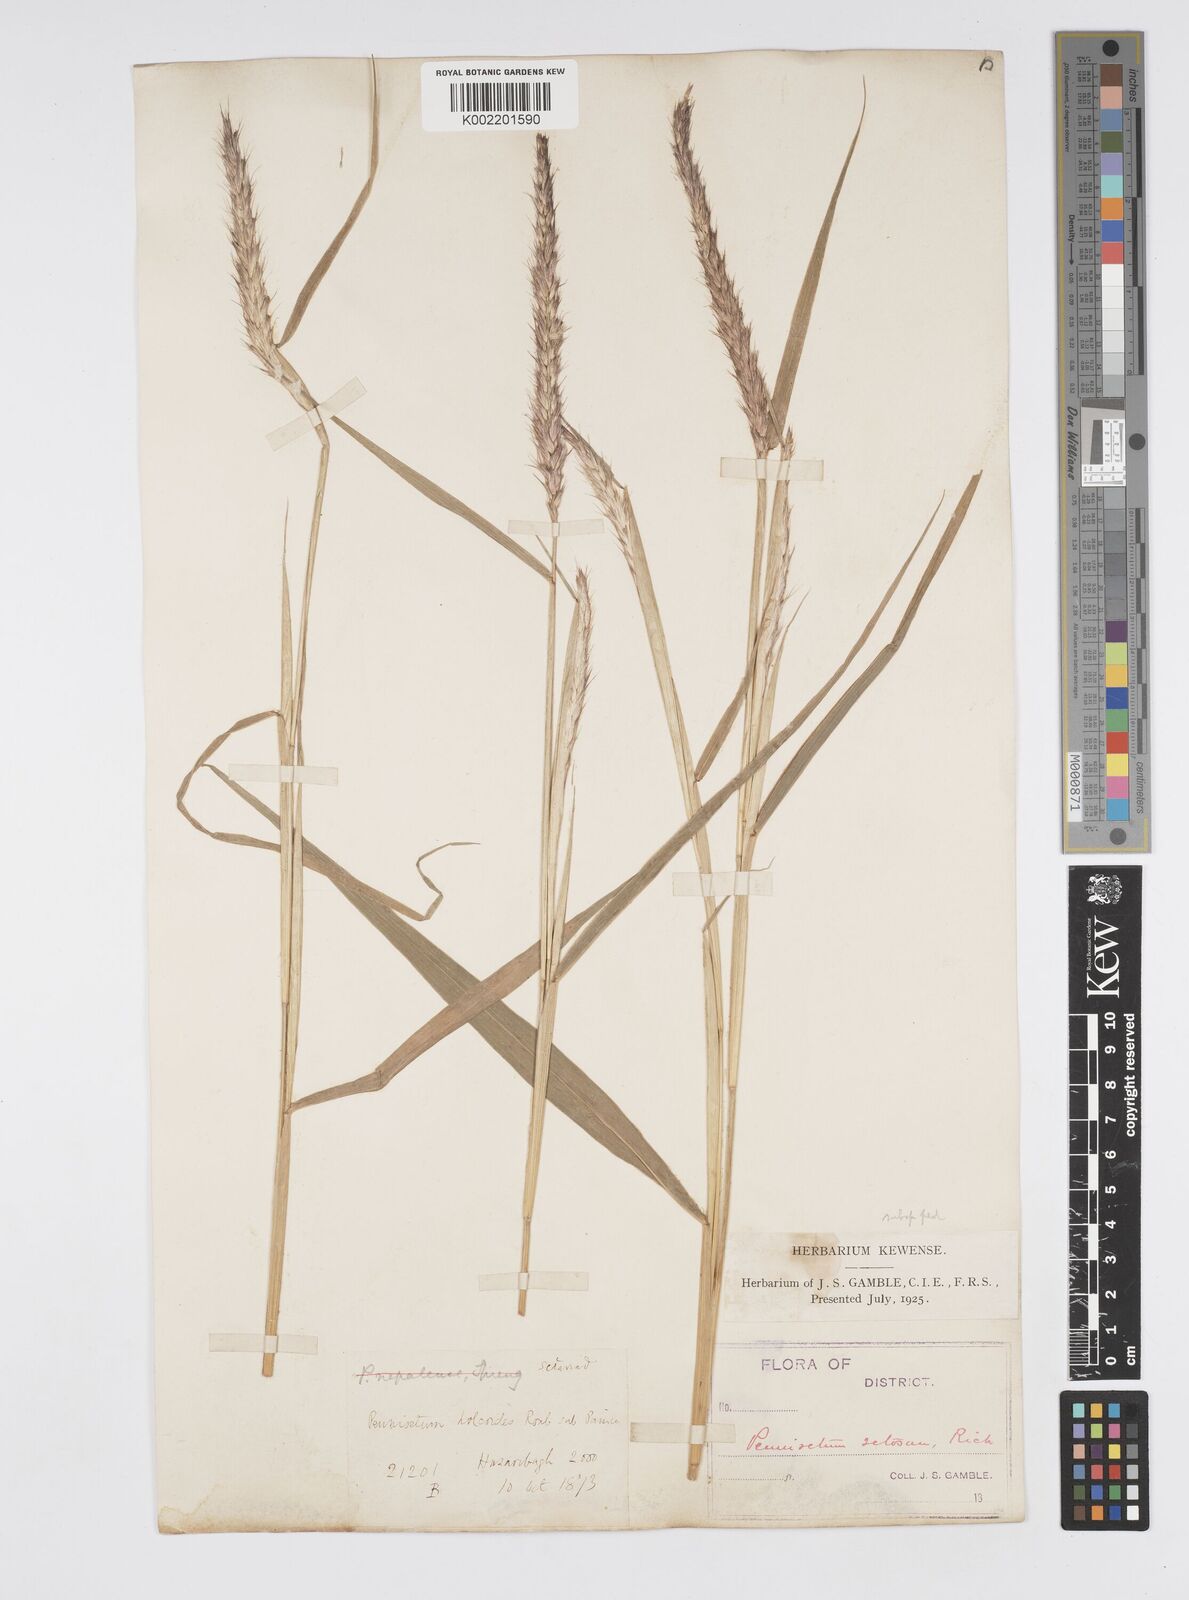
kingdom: Plantae
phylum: Tracheophyta
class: Liliopsida
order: Poales
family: Poaceae
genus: Cenchrus
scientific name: Cenchrus pedicellatus
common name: Hairy fountain grass
